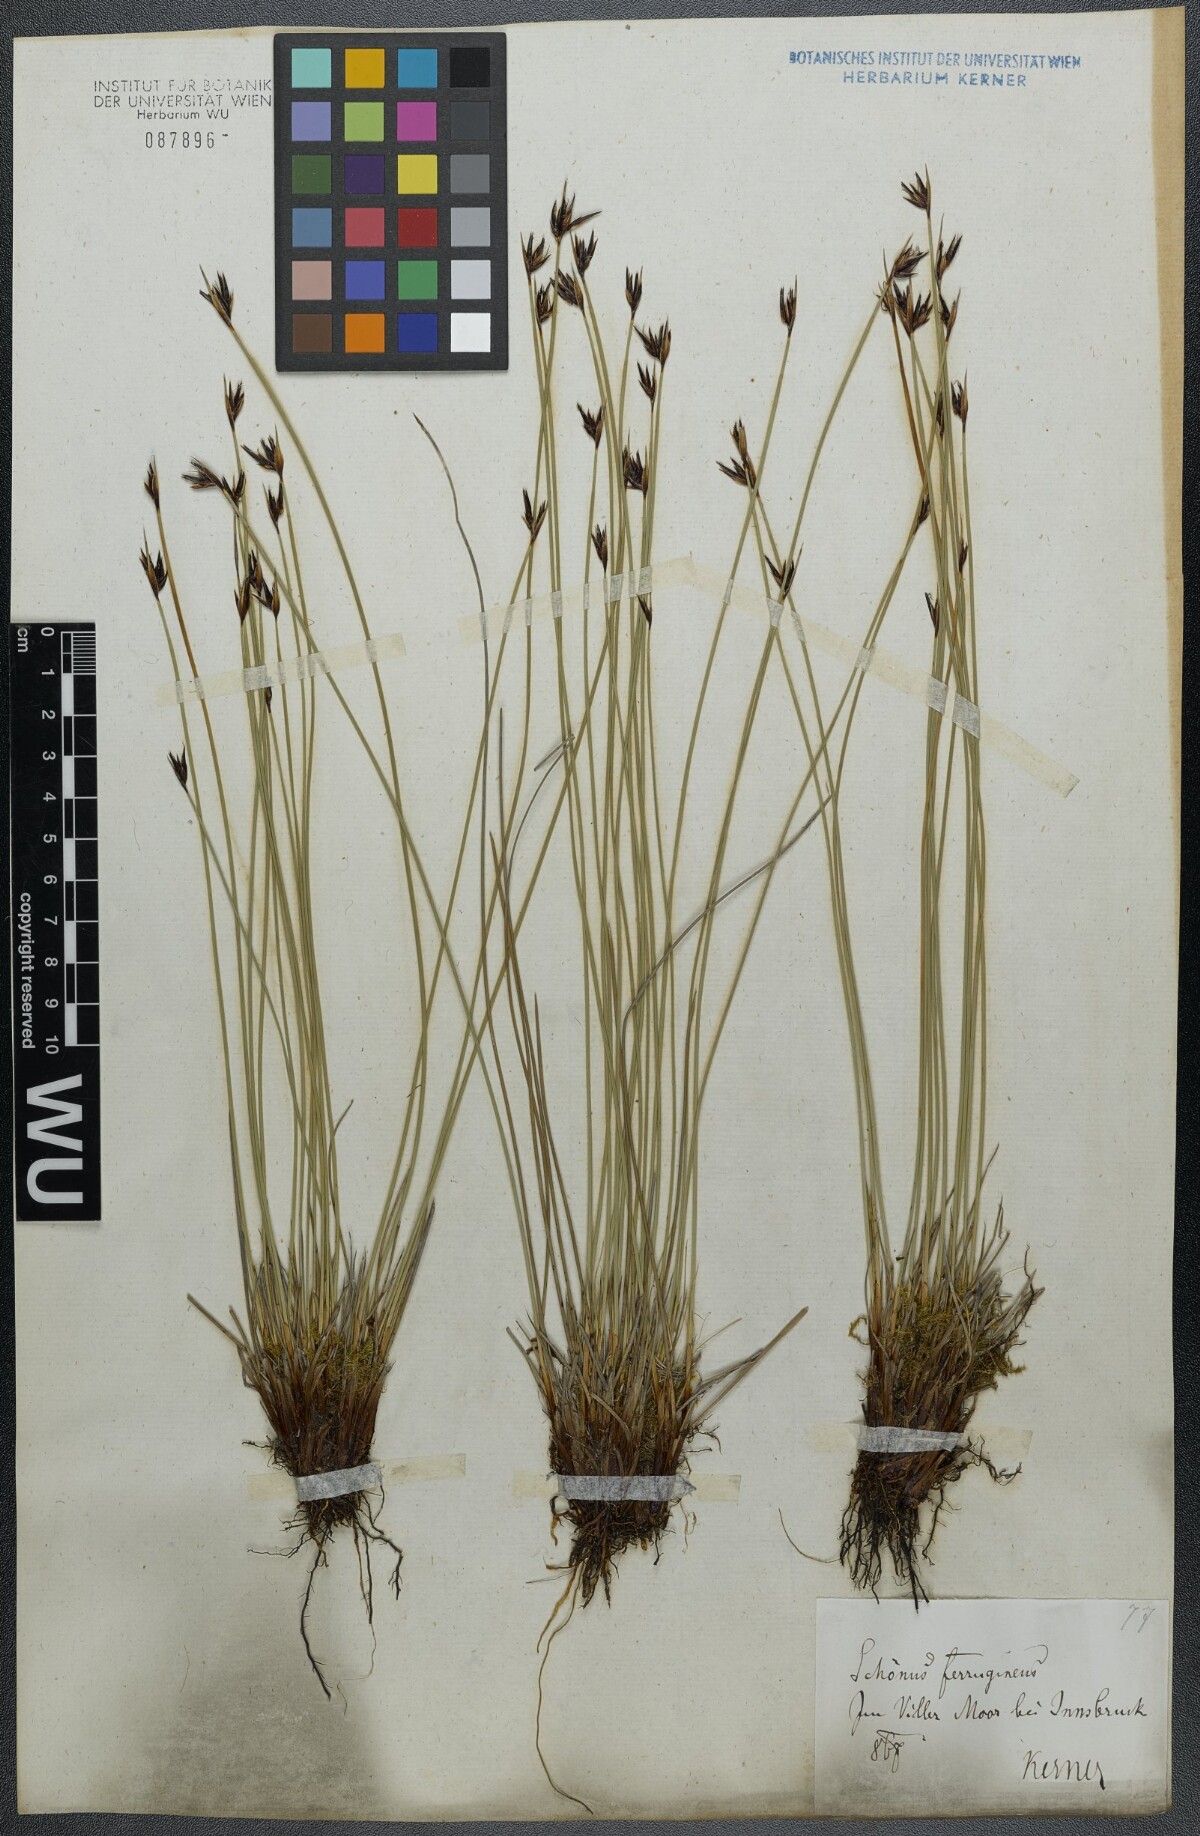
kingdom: Plantae
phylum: Tracheophyta
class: Liliopsida
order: Poales
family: Cyperaceae
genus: Schoenus
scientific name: Schoenus ferrugineus
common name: Brown bog-rush
